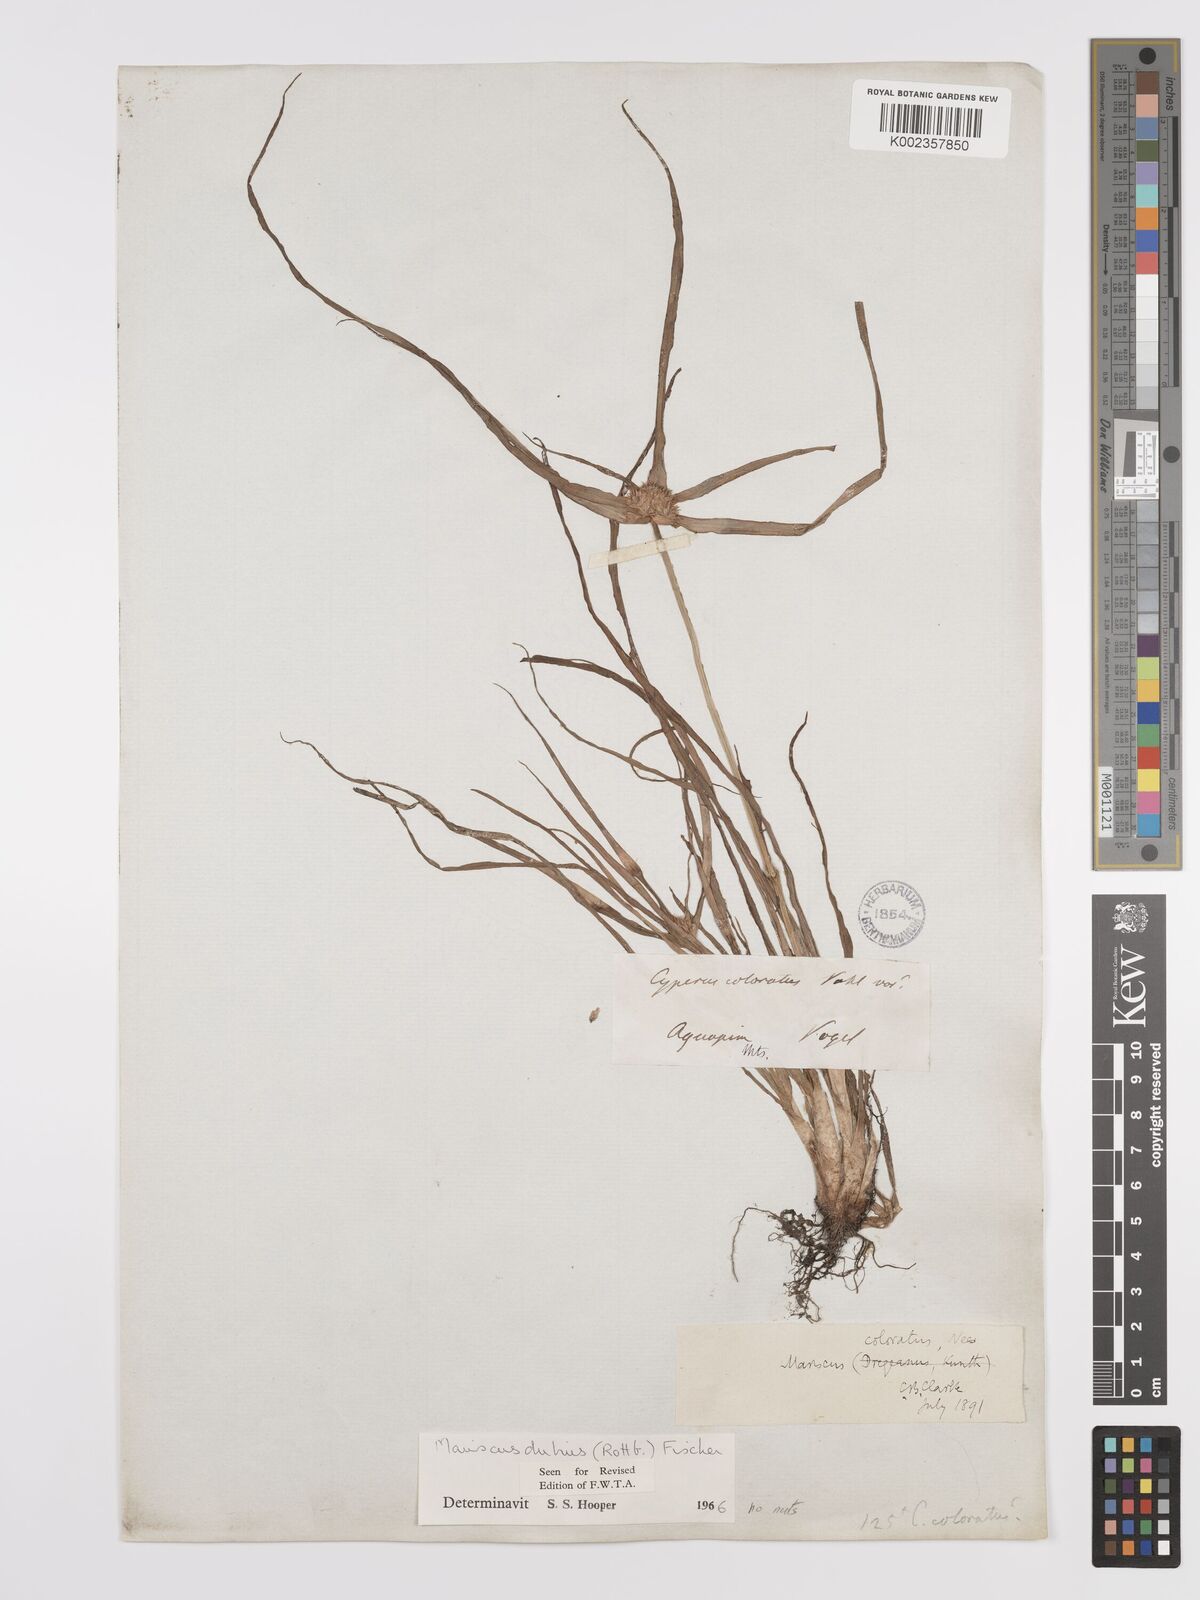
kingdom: Plantae
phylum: Tracheophyta
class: Liliopsida
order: Poales
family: Cyperaceae
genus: Cyperus
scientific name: Cyperus dubius
